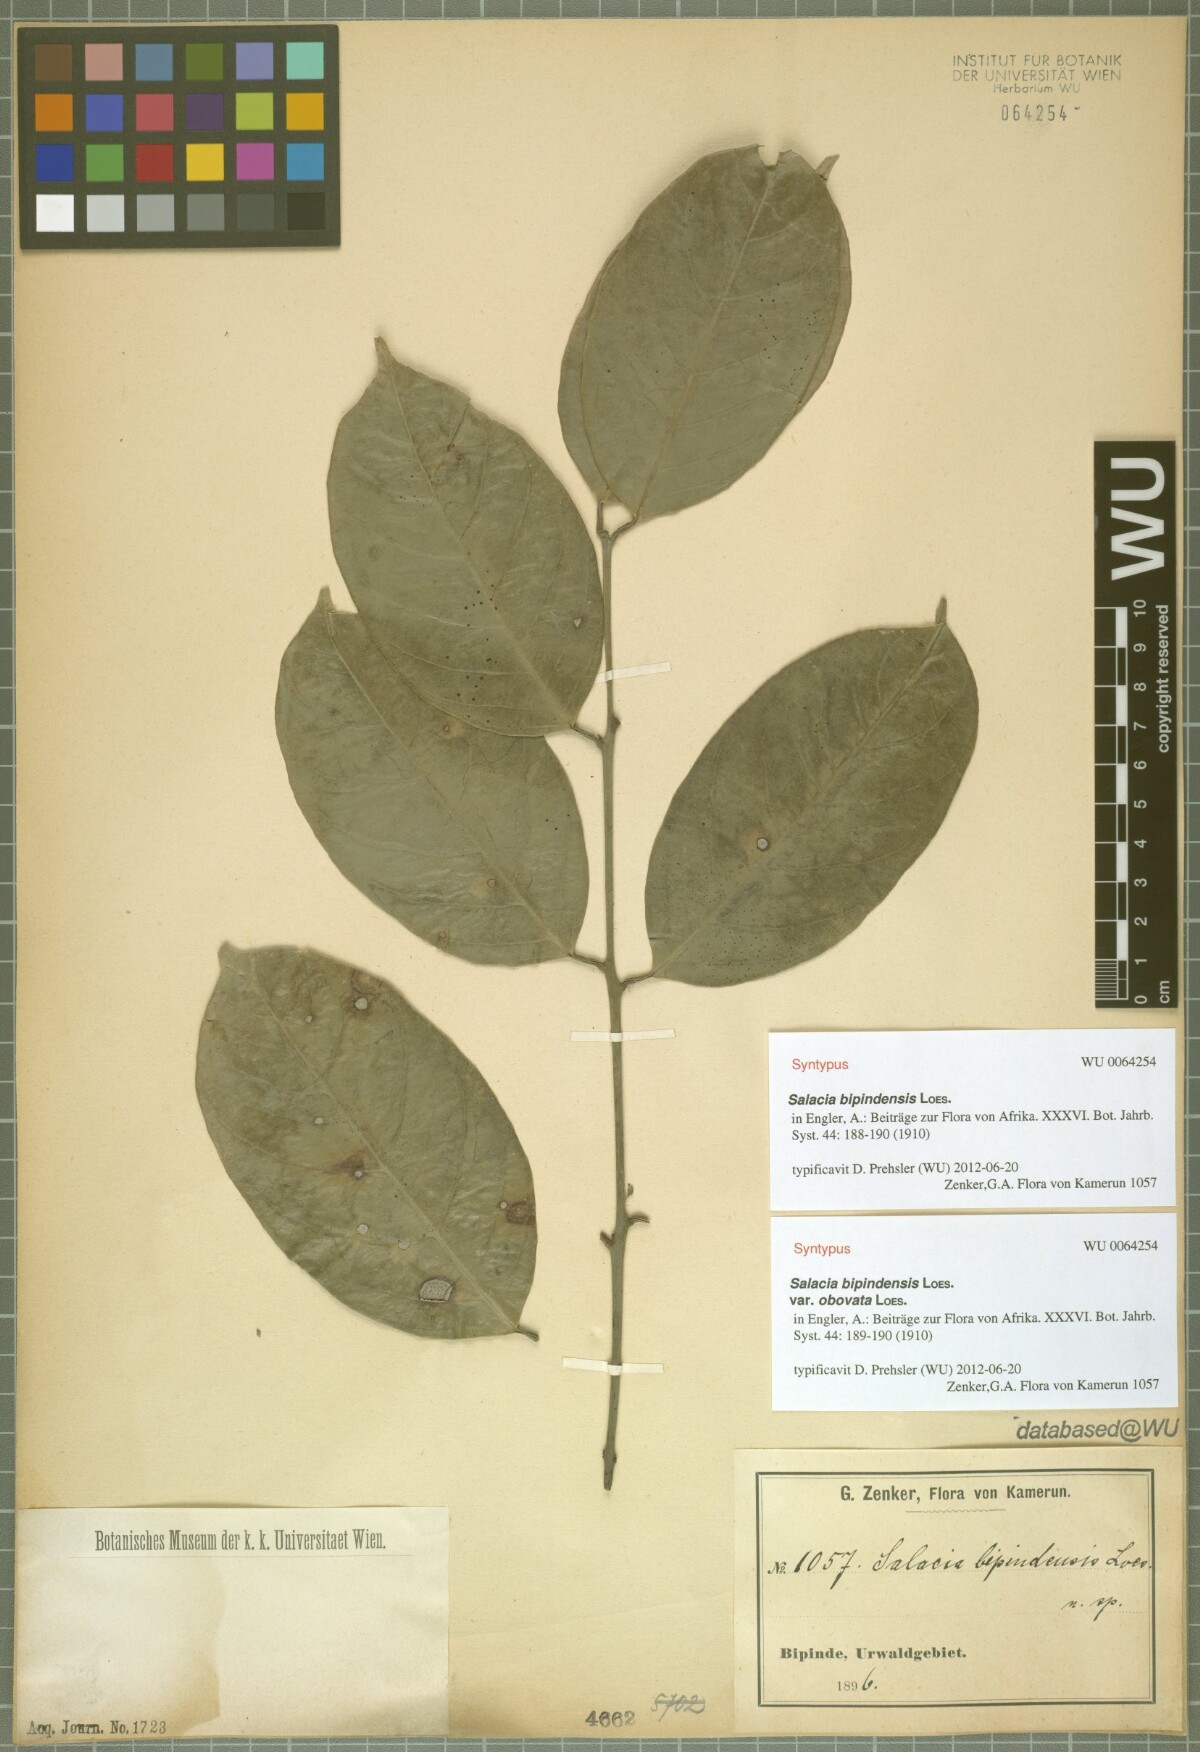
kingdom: Plantae
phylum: Tracheophyta
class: Magnoliopsida
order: Celastrales
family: Celastraceae
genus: Salacia
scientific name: Salacia nitida
